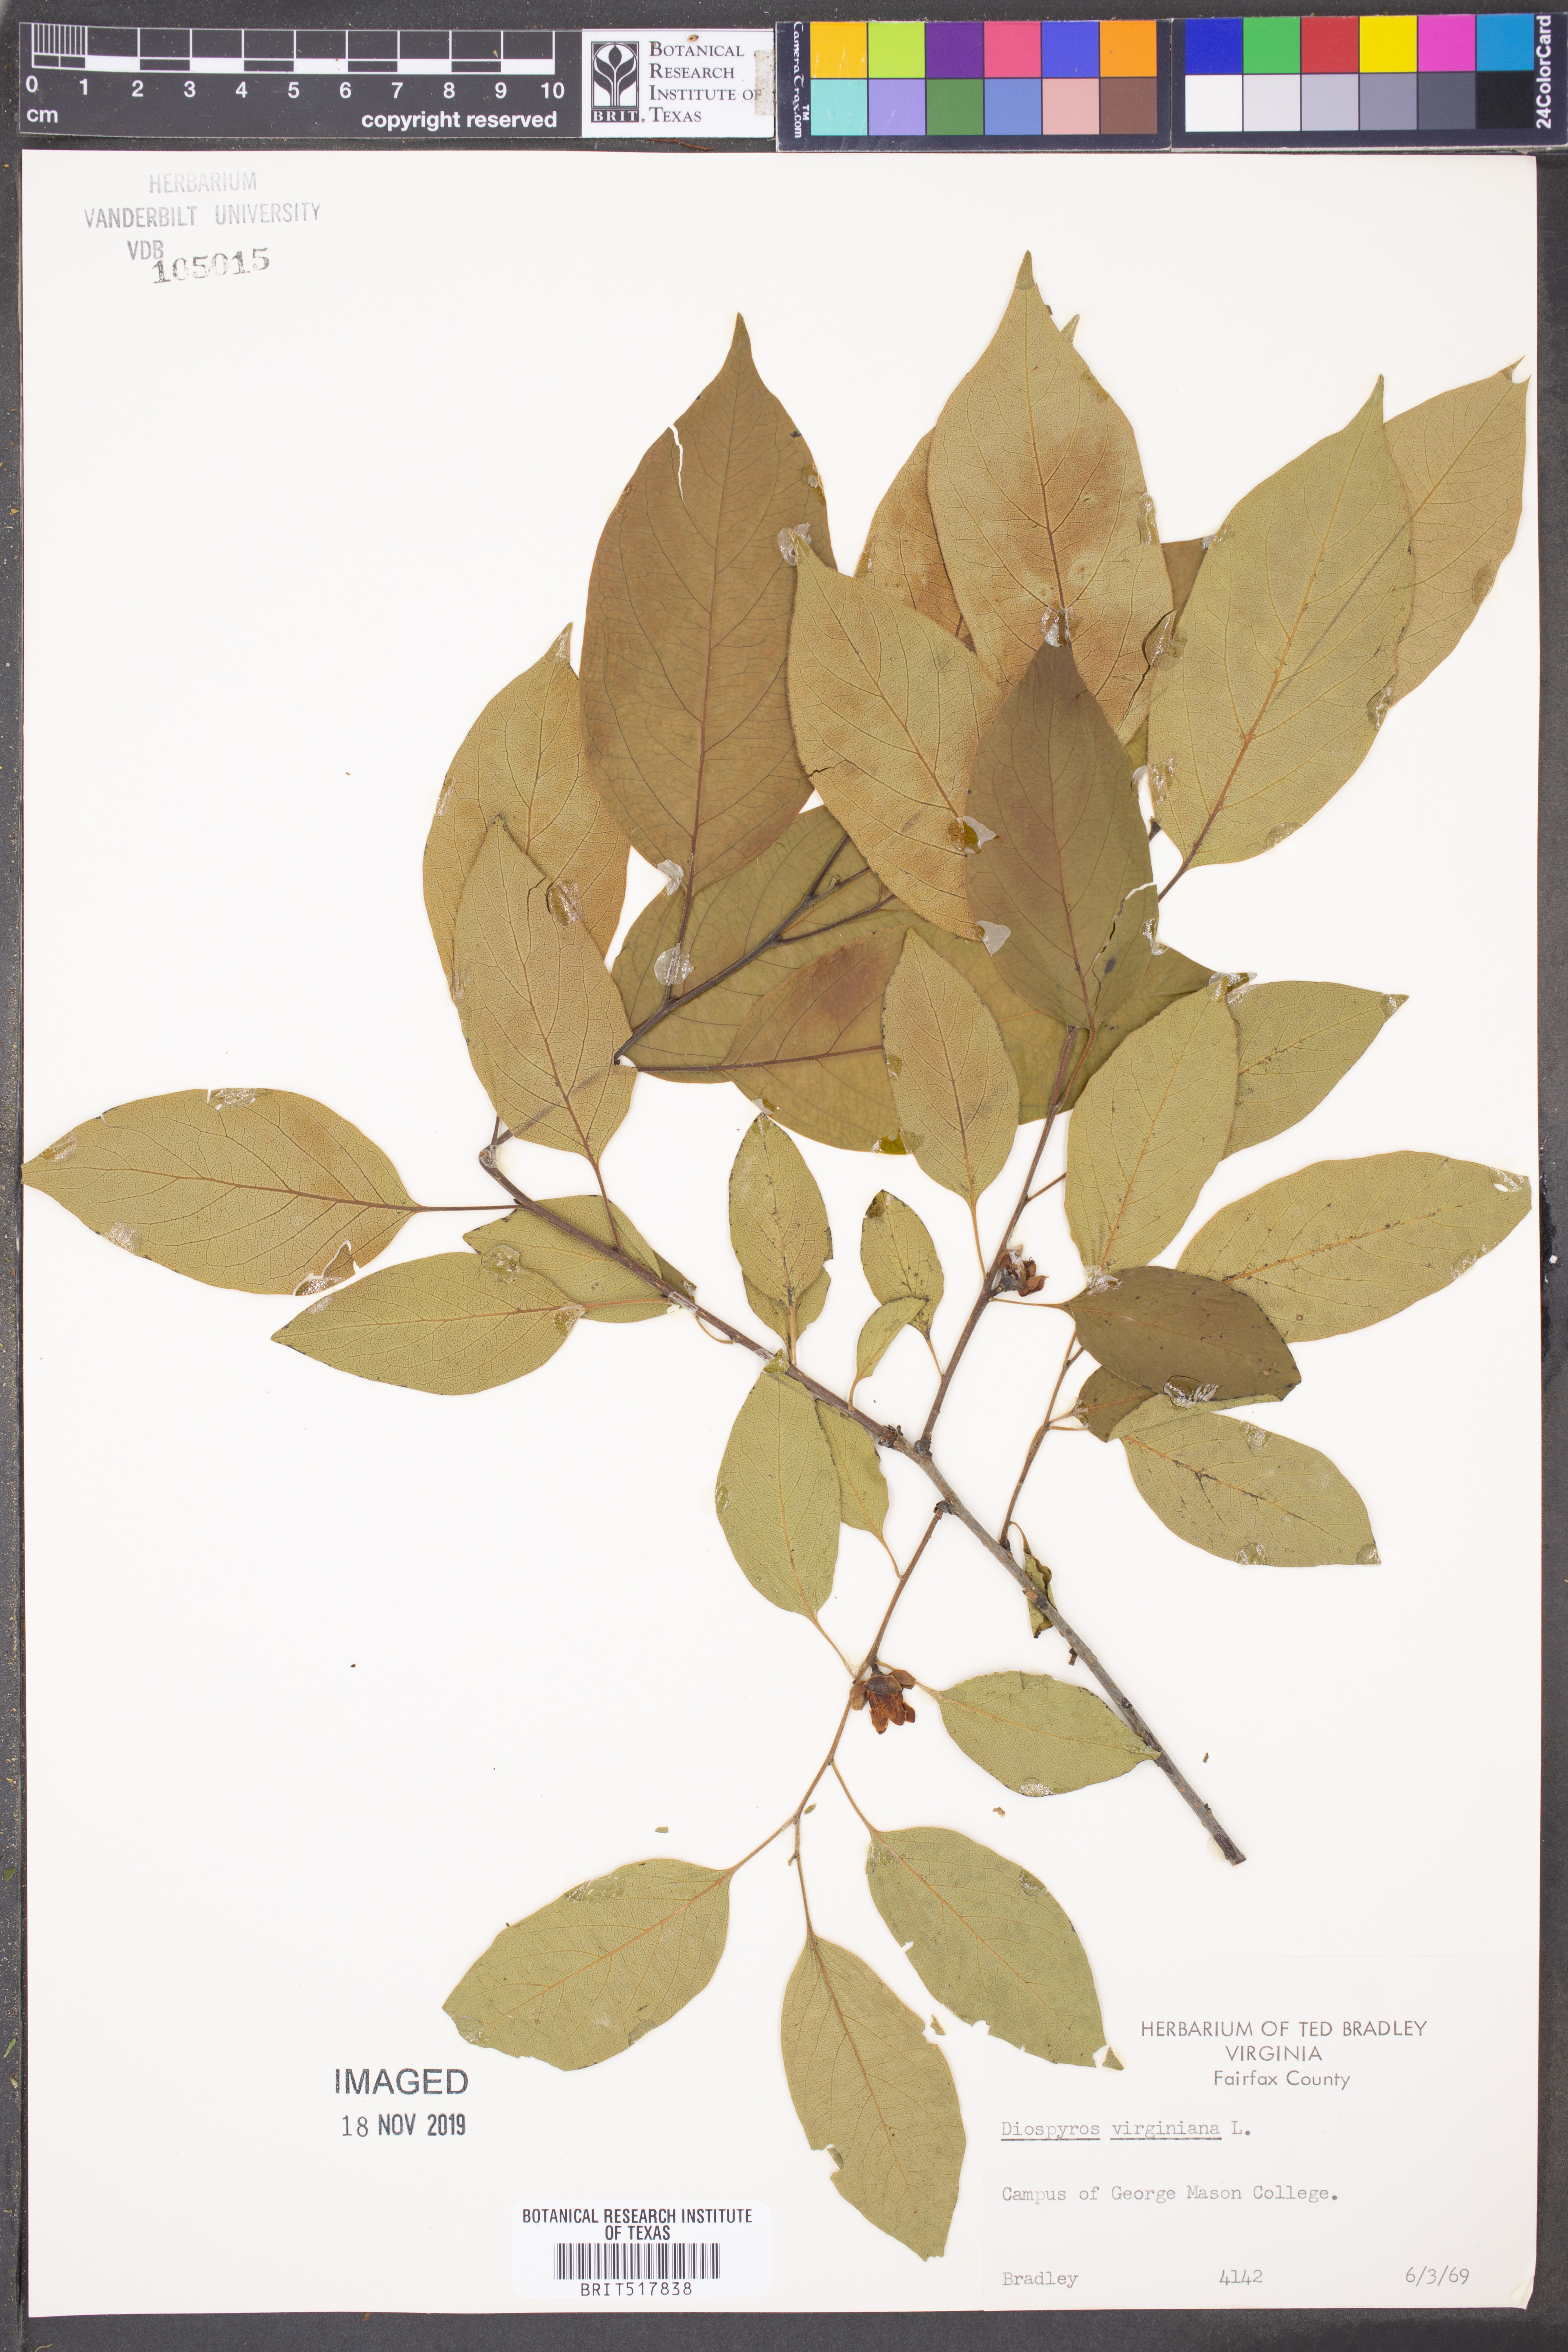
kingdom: Plantae
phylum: Tracheophyta
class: Magnoliopsida
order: Ericales
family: Ebenaceae
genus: Diospyros
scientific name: Diospyros virginiana
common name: Persimmon
